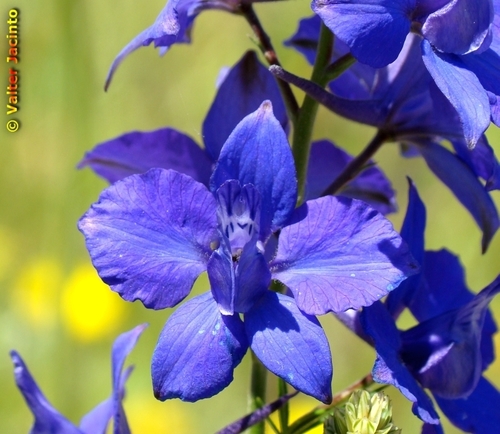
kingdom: Plantae
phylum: Tracheophyta
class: Magnoliopsida
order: Ranunculales
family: Ranunculaceae
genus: Delphinium
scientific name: Delphinium ajacis
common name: Doubtful knight's-spur
